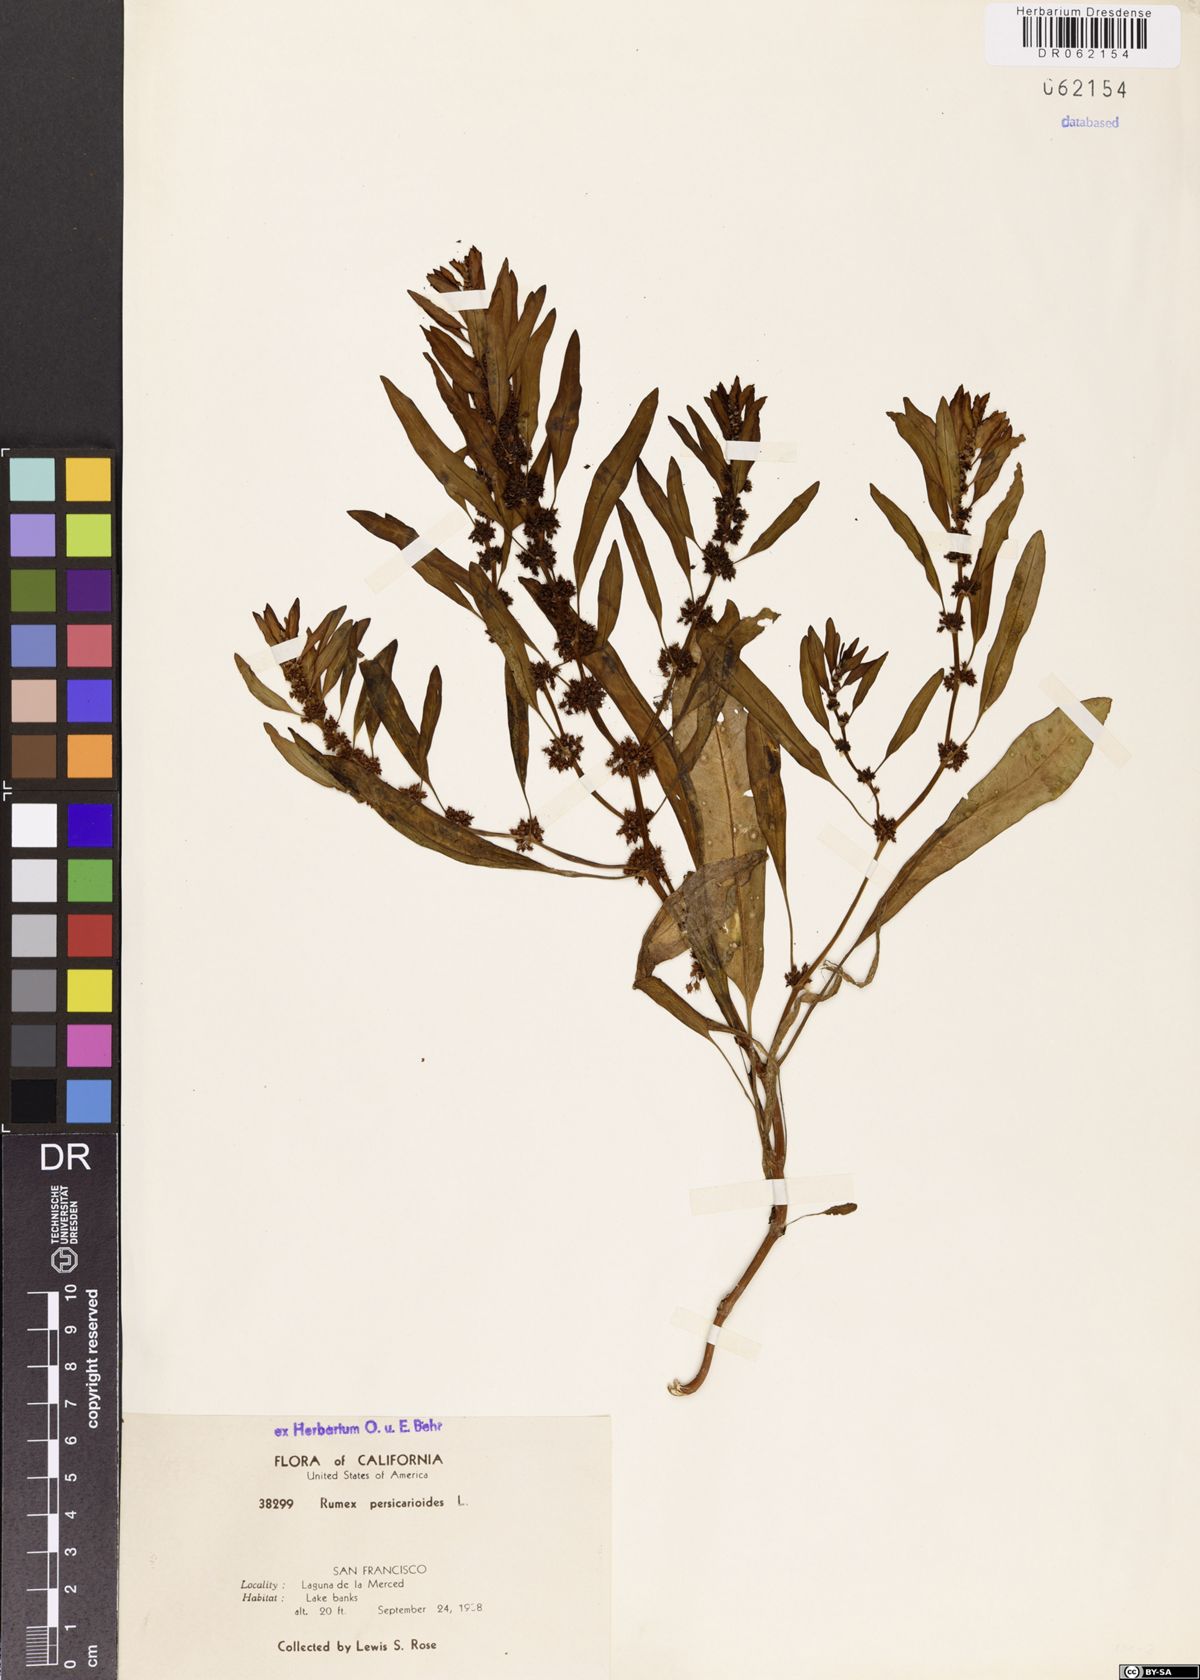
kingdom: Plantae
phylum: Tracheophyta
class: Magnoliopsida
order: Caryophyllales
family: Polygonaceae
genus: Rumex
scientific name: Rumex persicarioides
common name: Peach-leaved dock
